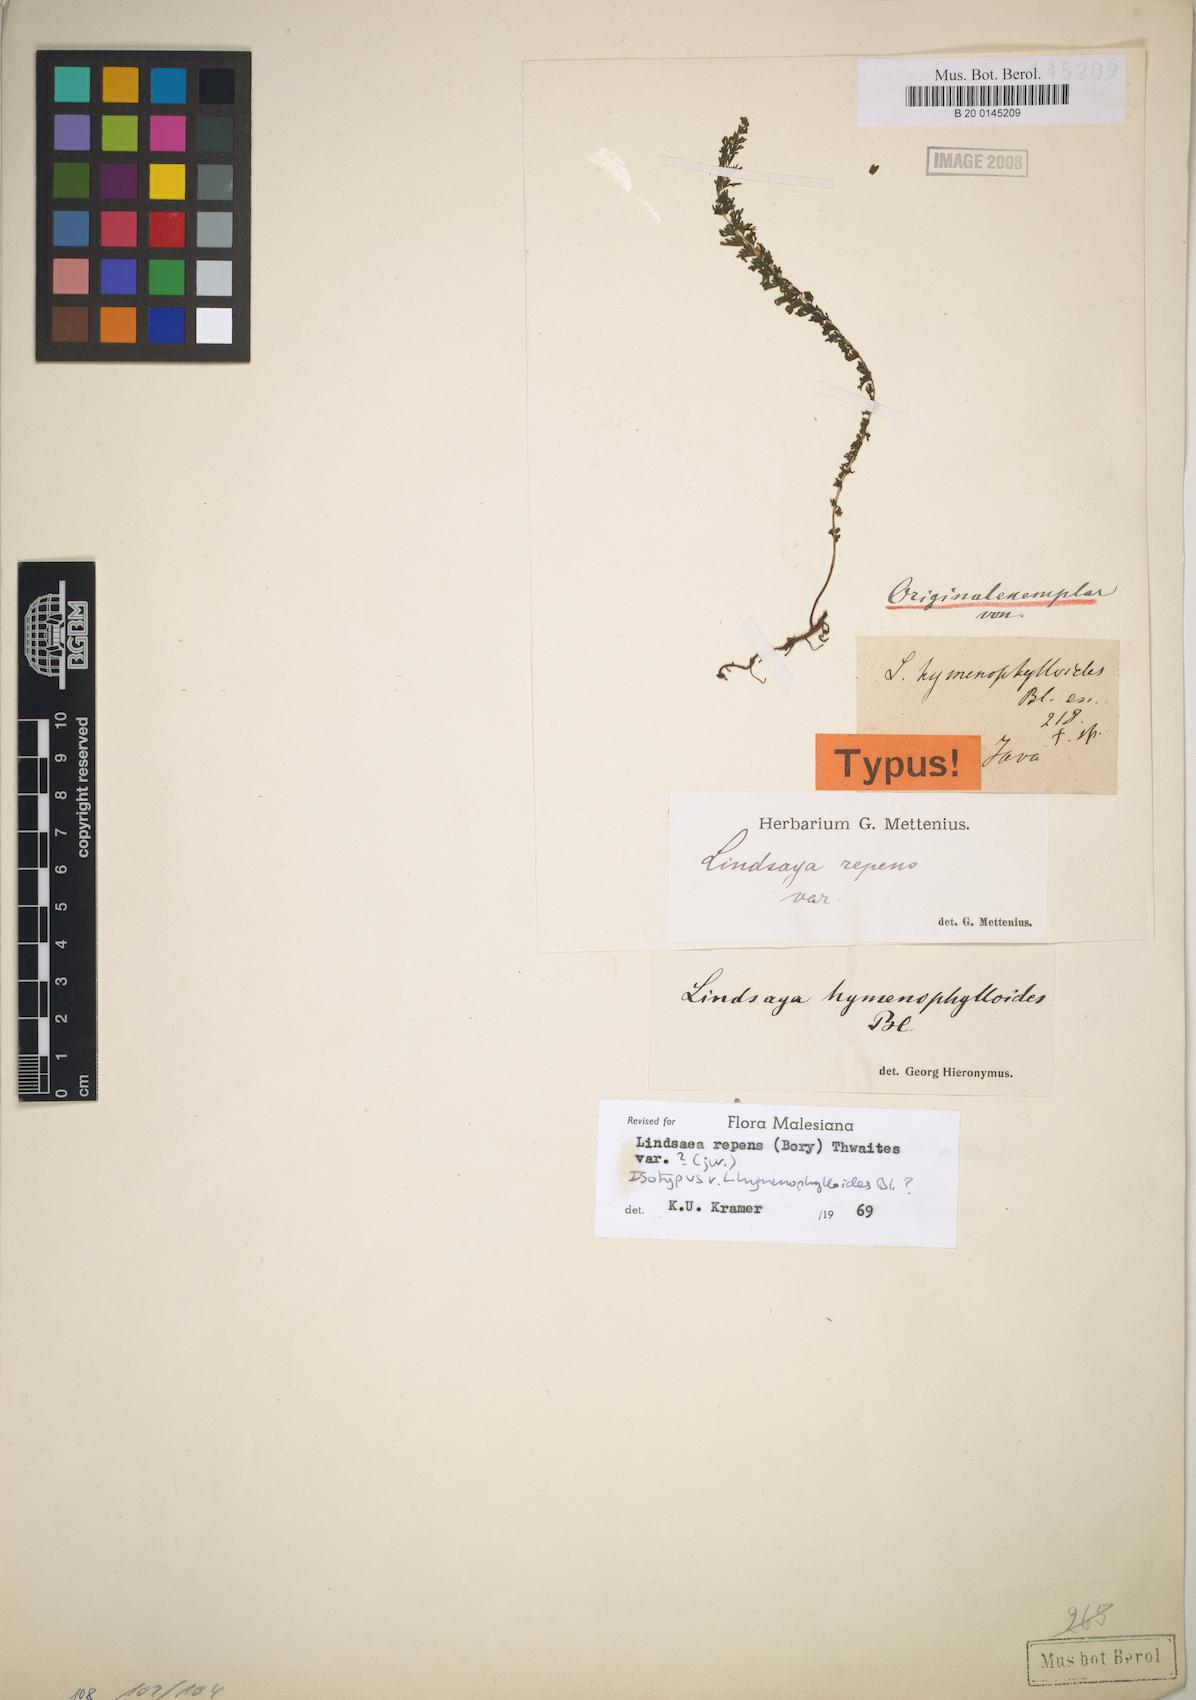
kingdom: Plantae
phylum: Tracheophyta
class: Polypodiopsida
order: Polypodiales
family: Davalliaceae
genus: Davallodes
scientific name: Davallodes hymenophylloides
